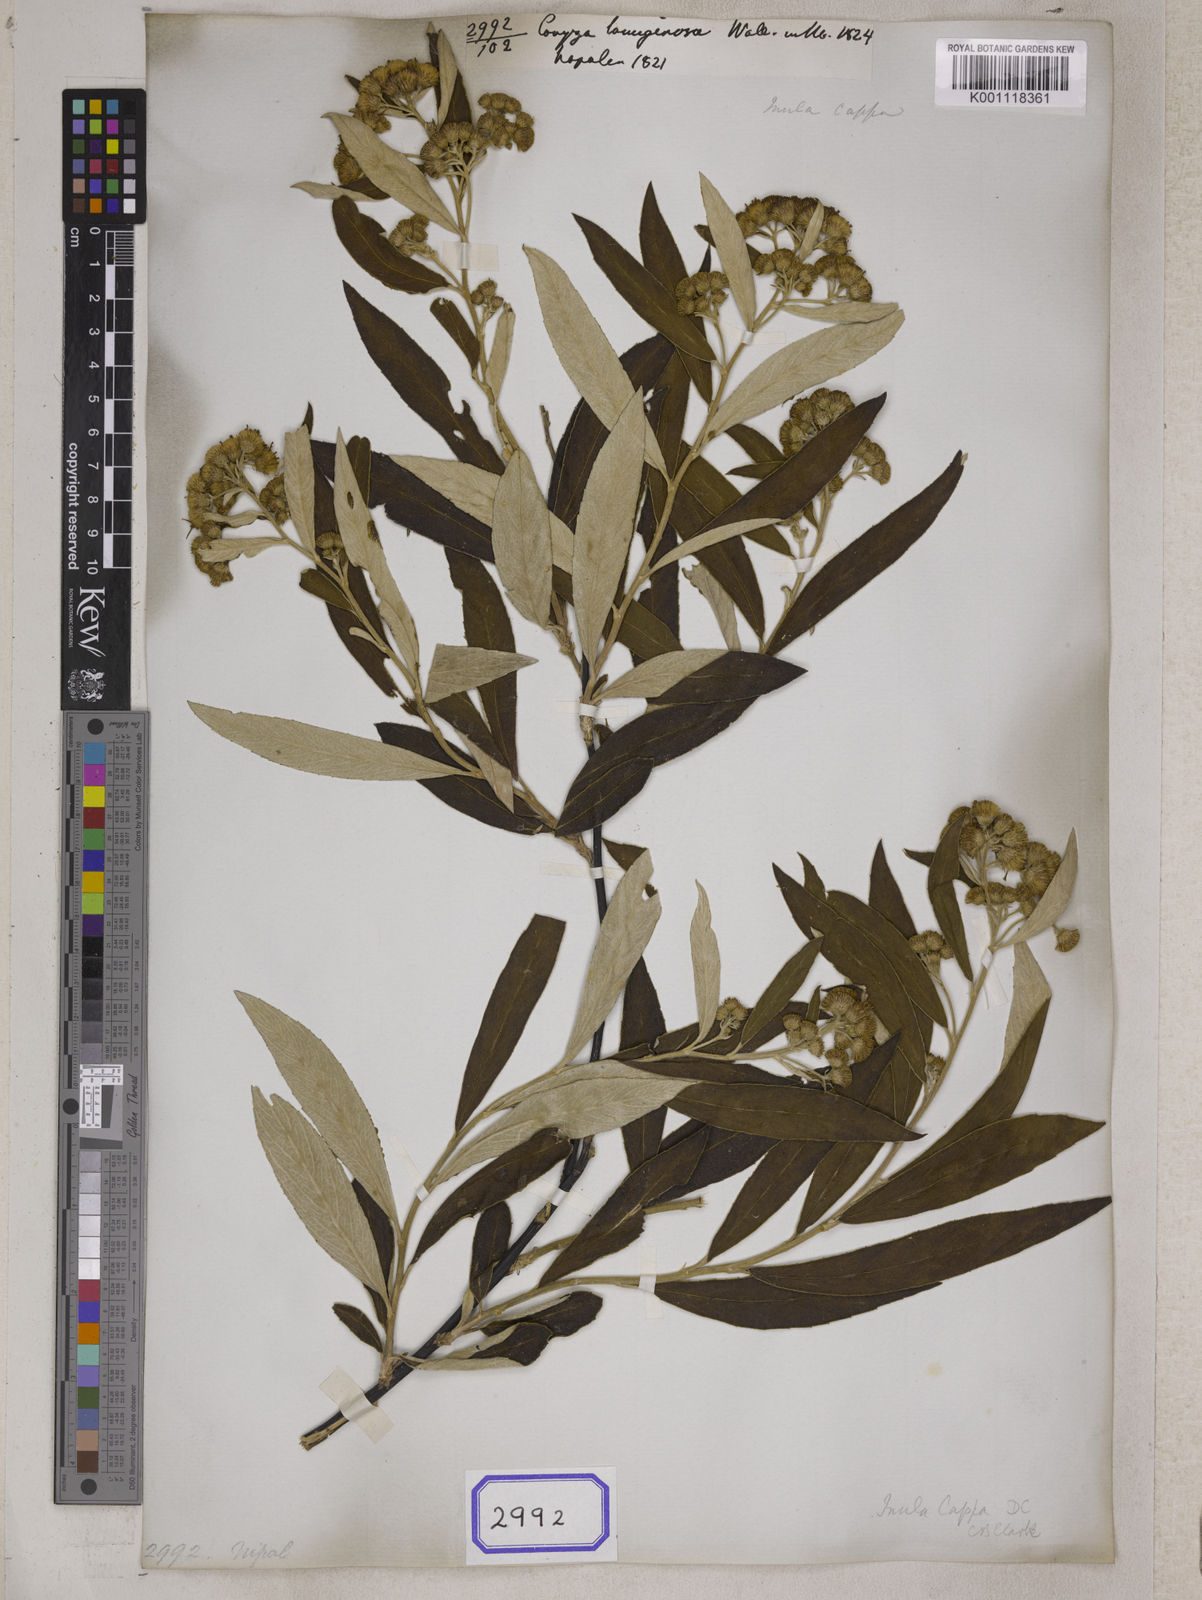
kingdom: Plantae
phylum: Tracheophyta
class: Magnoliopsida
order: Asterales
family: Asteraceae
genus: Duhaldea
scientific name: Duhaldea cappa
